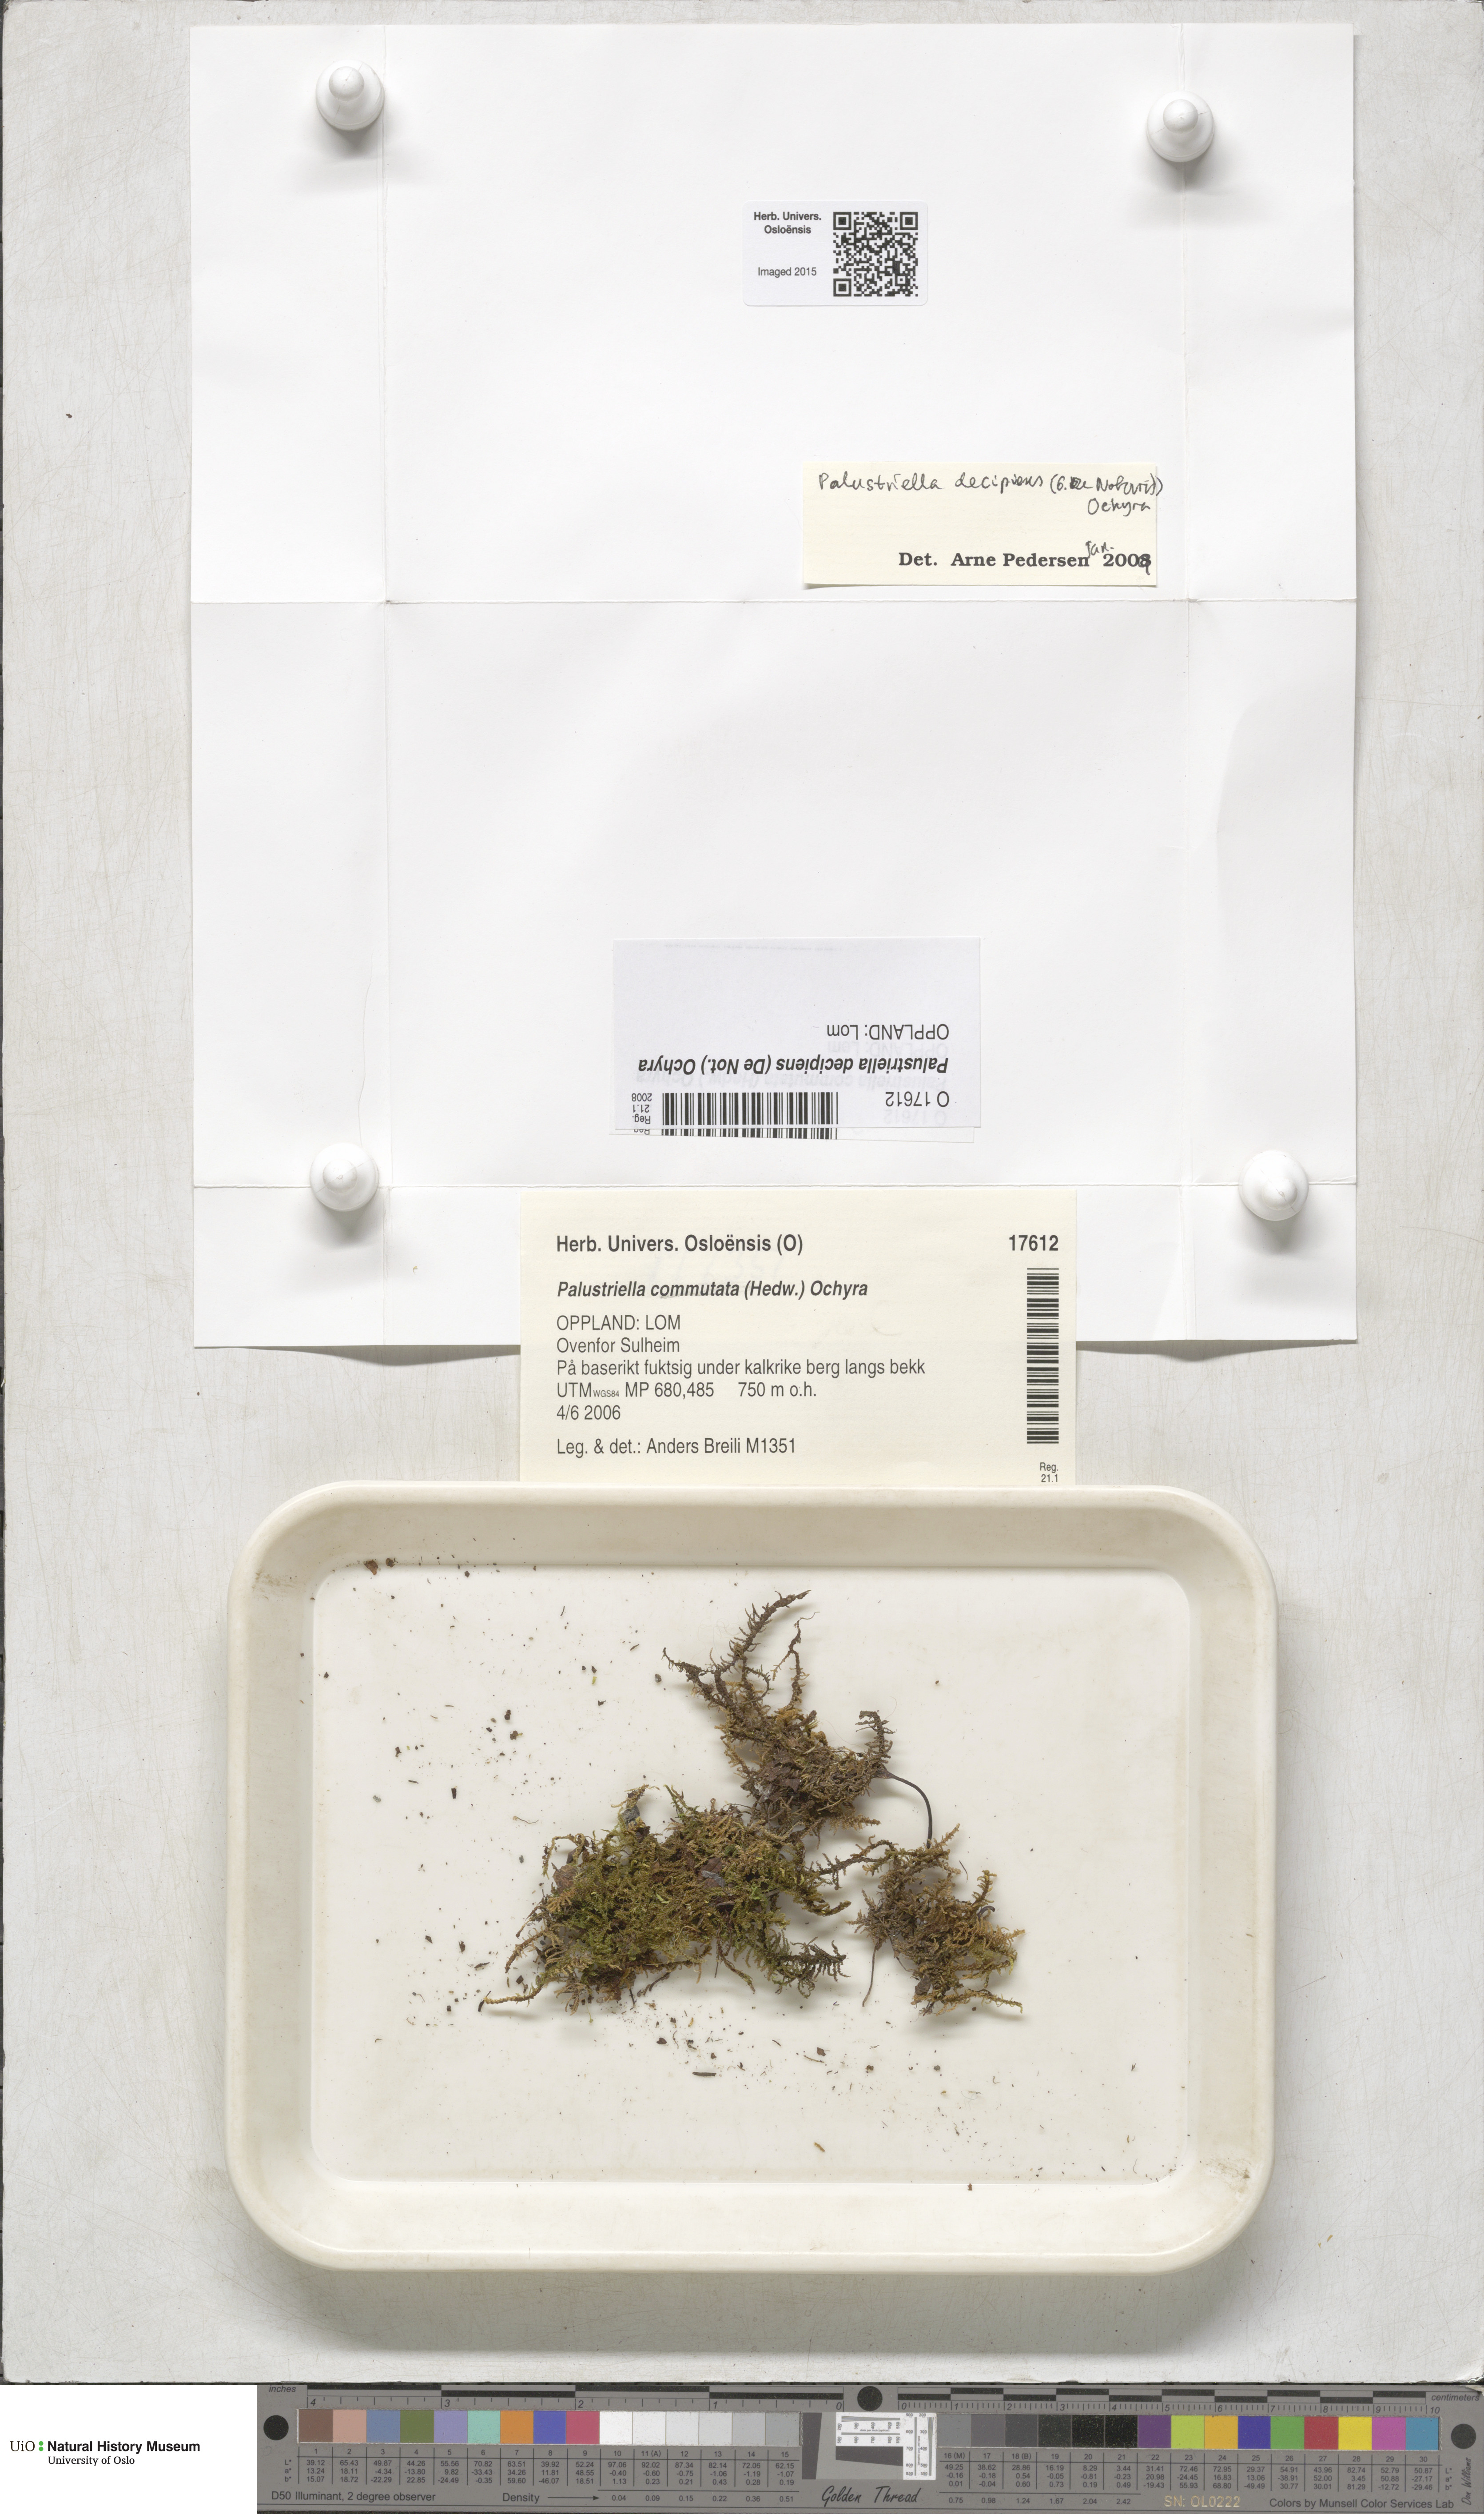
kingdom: Plantae
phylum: Bryophyta
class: Bryopsida
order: Hypnales
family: Amblystegiaceae
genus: Palustriella
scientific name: Palustriella decipiens
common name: Lesser curled hook-moss
